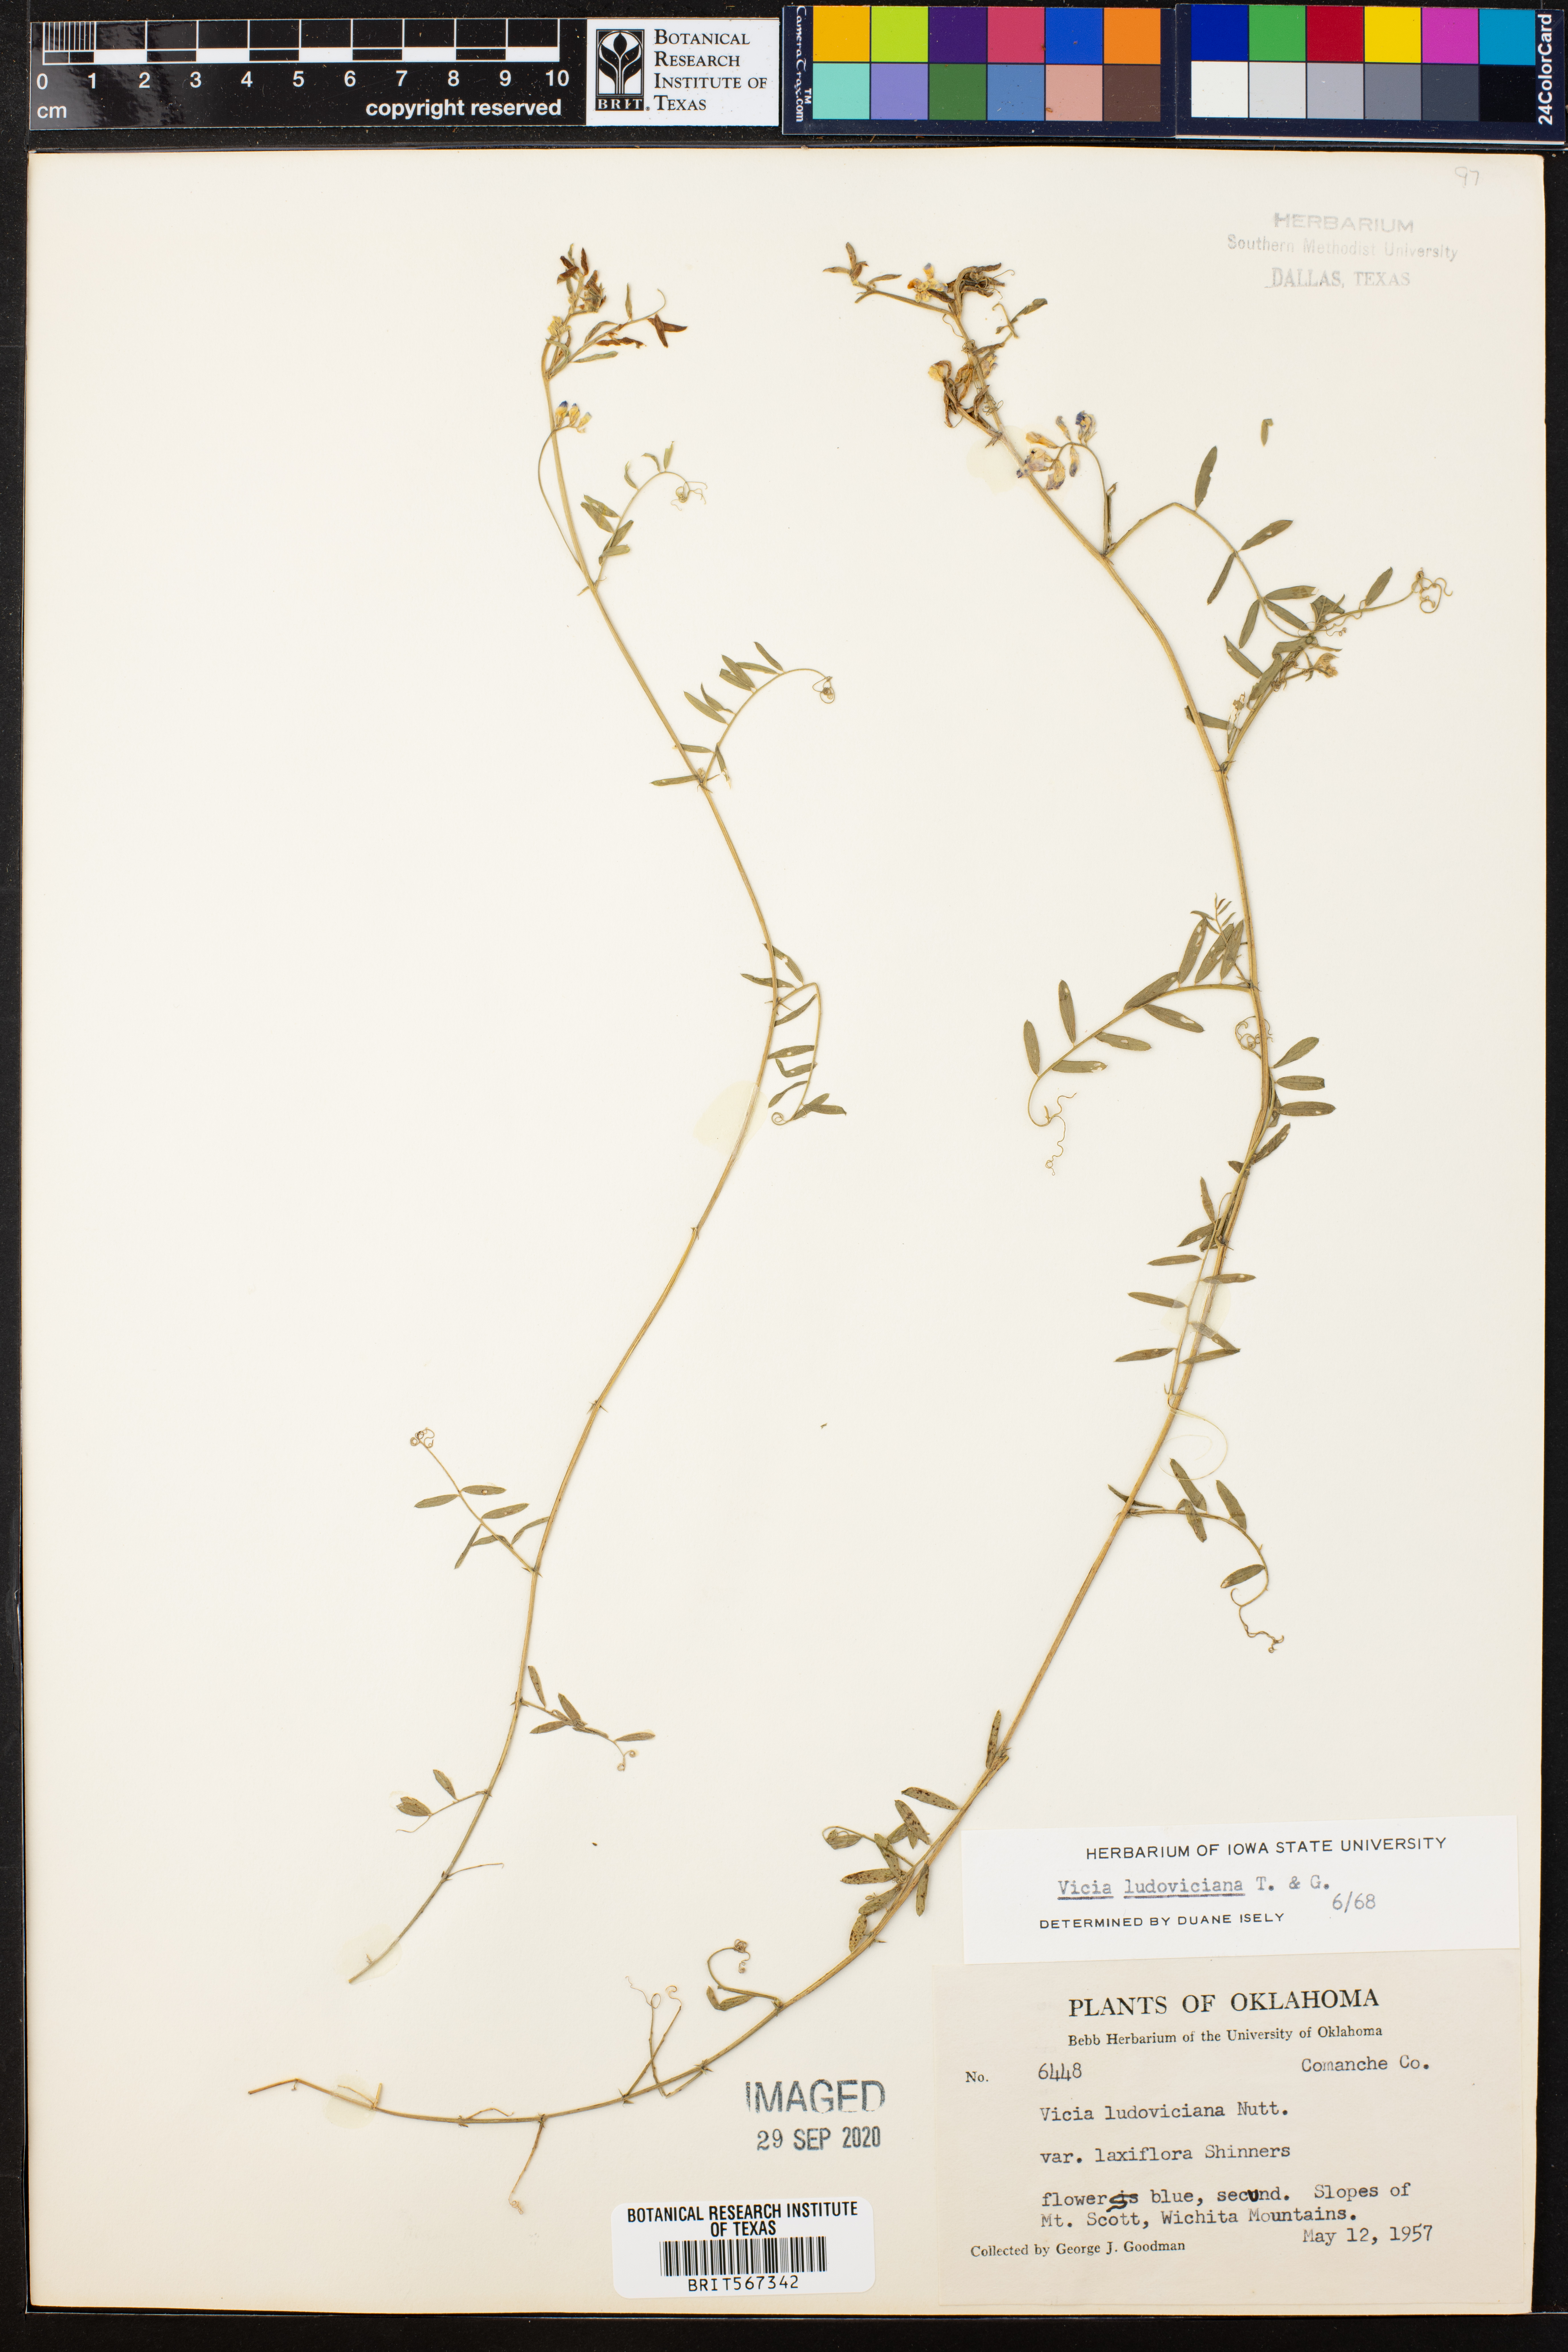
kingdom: Plantae
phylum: Tracheophyta
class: Magnoliopsida
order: Fabales
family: Fabaceae
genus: Vicia
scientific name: Vicia ludoviciana
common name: Louisiana vetch
